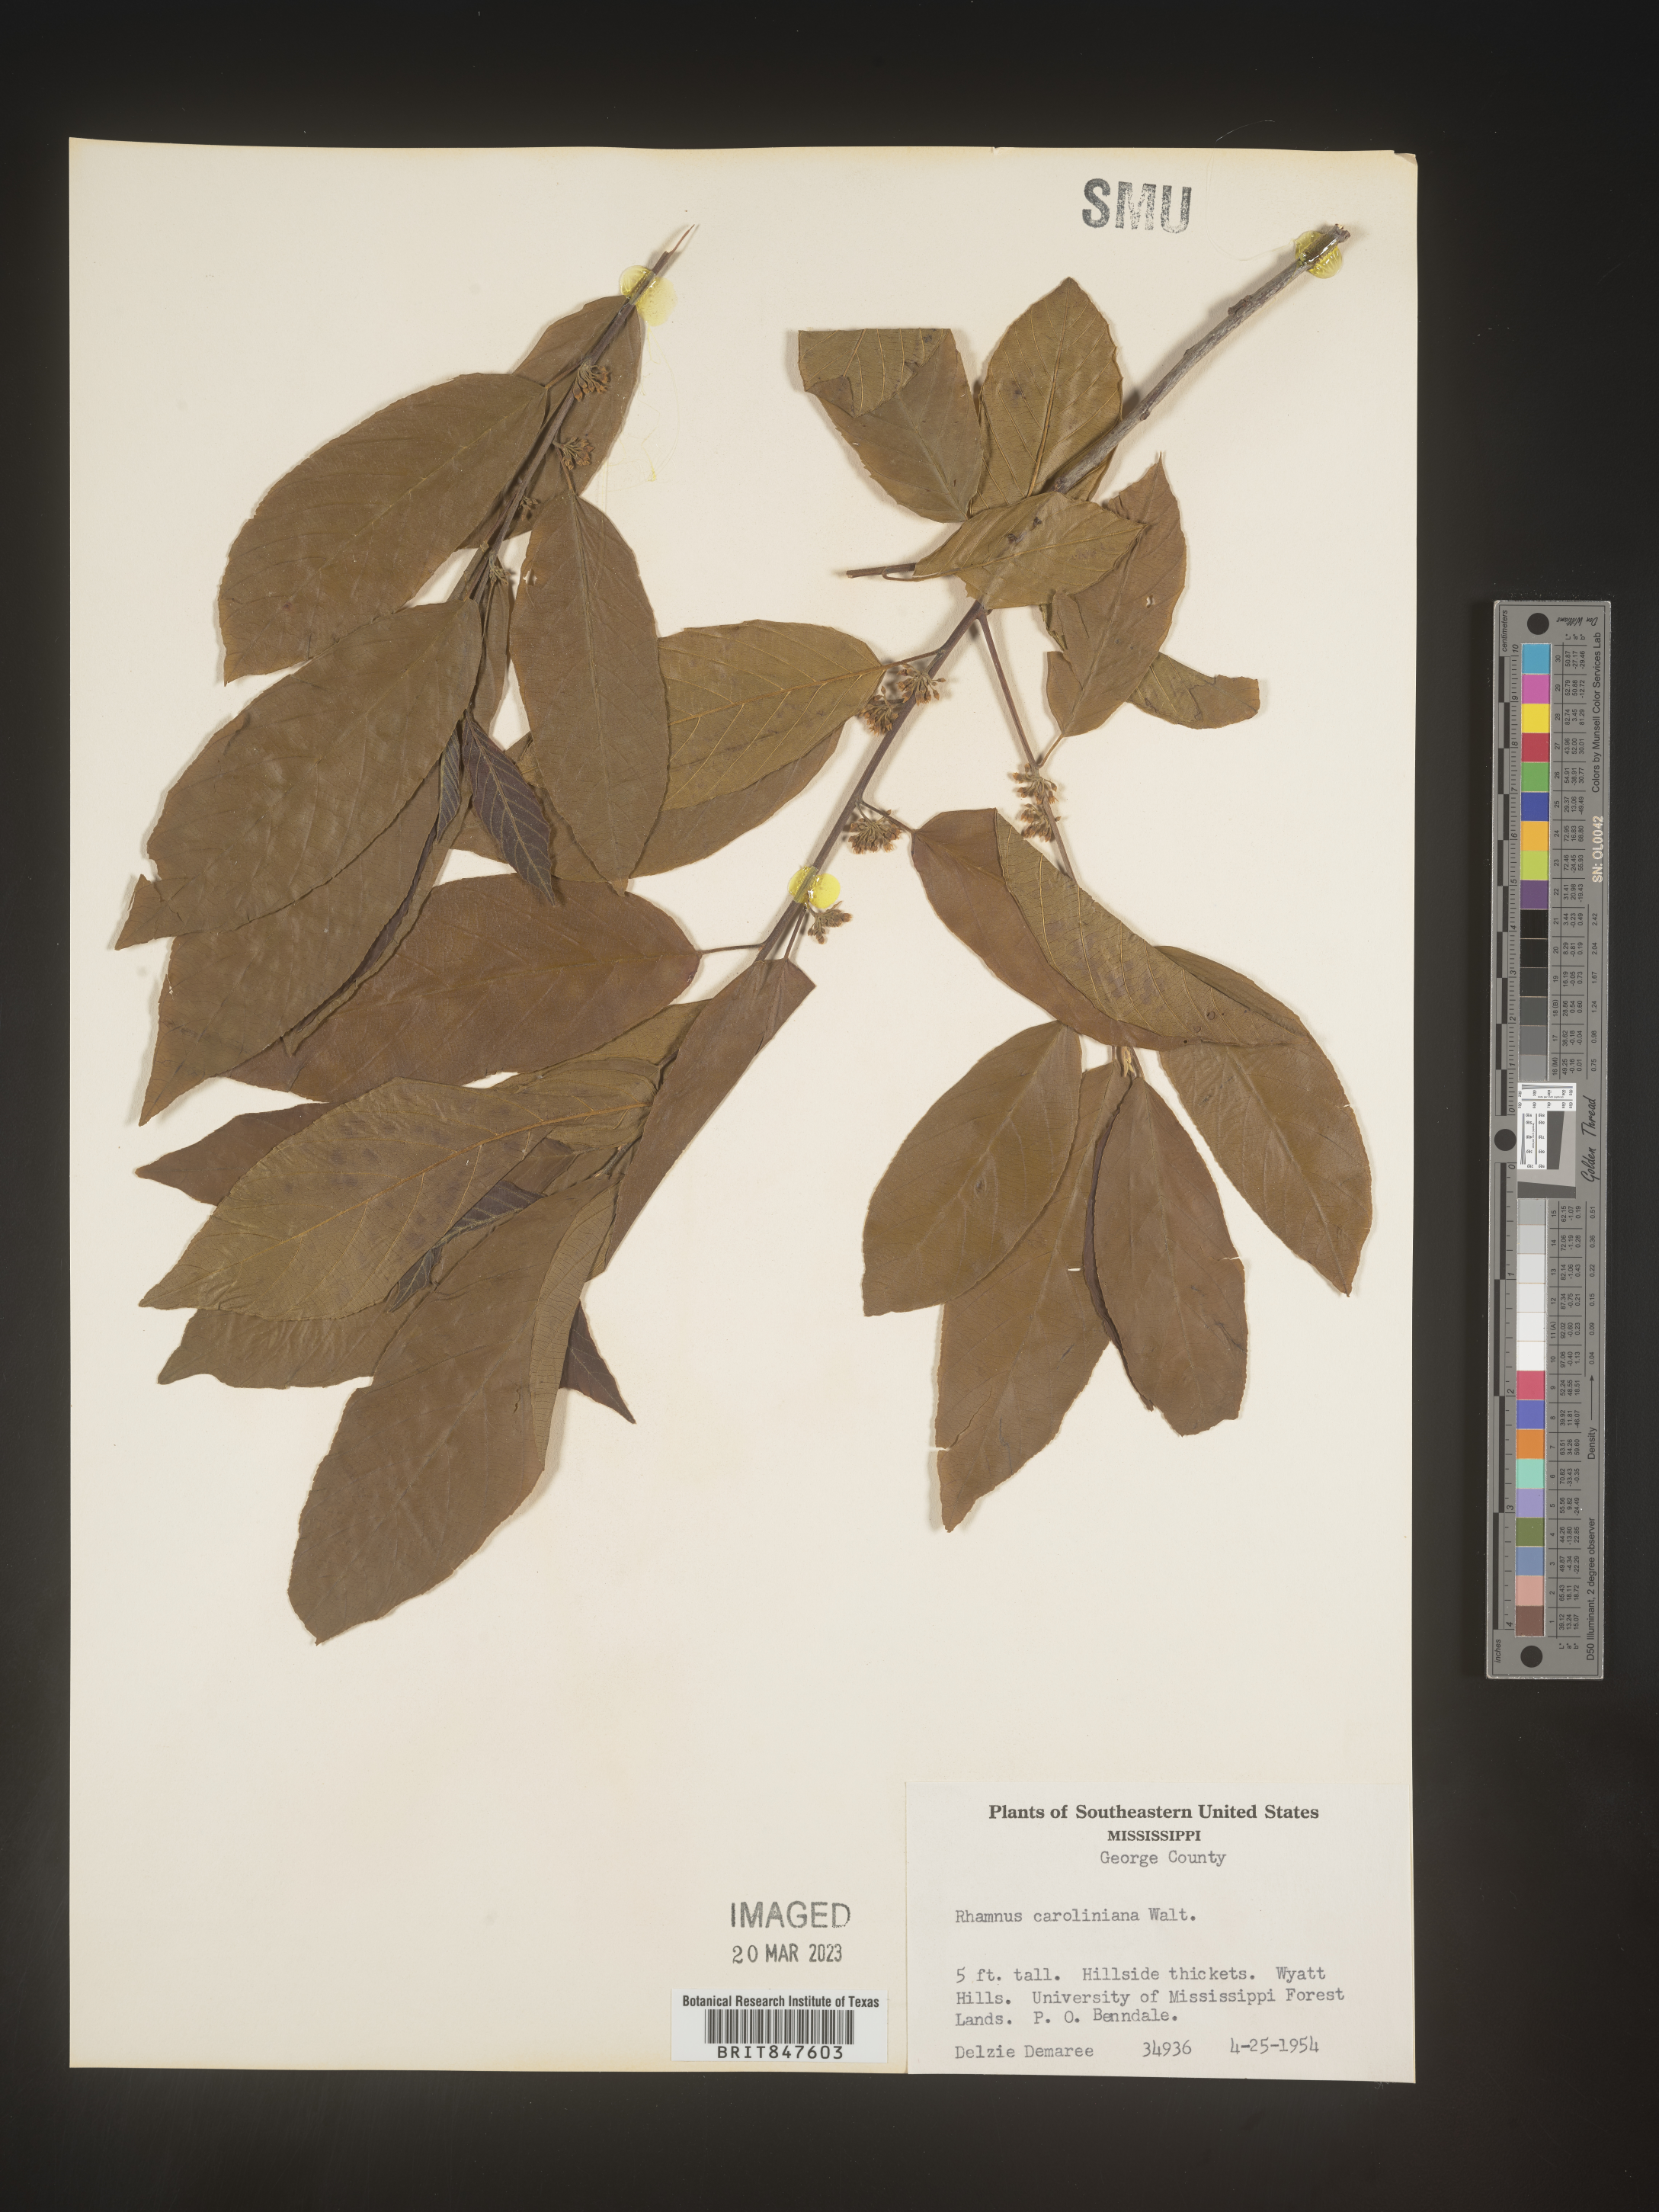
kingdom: Plantae
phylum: Tracheophyta
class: Magnoliopsida
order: Rosales
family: Rhamnaceae
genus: Frangula
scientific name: Frangula caroliniana
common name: Carolina buckthorn
